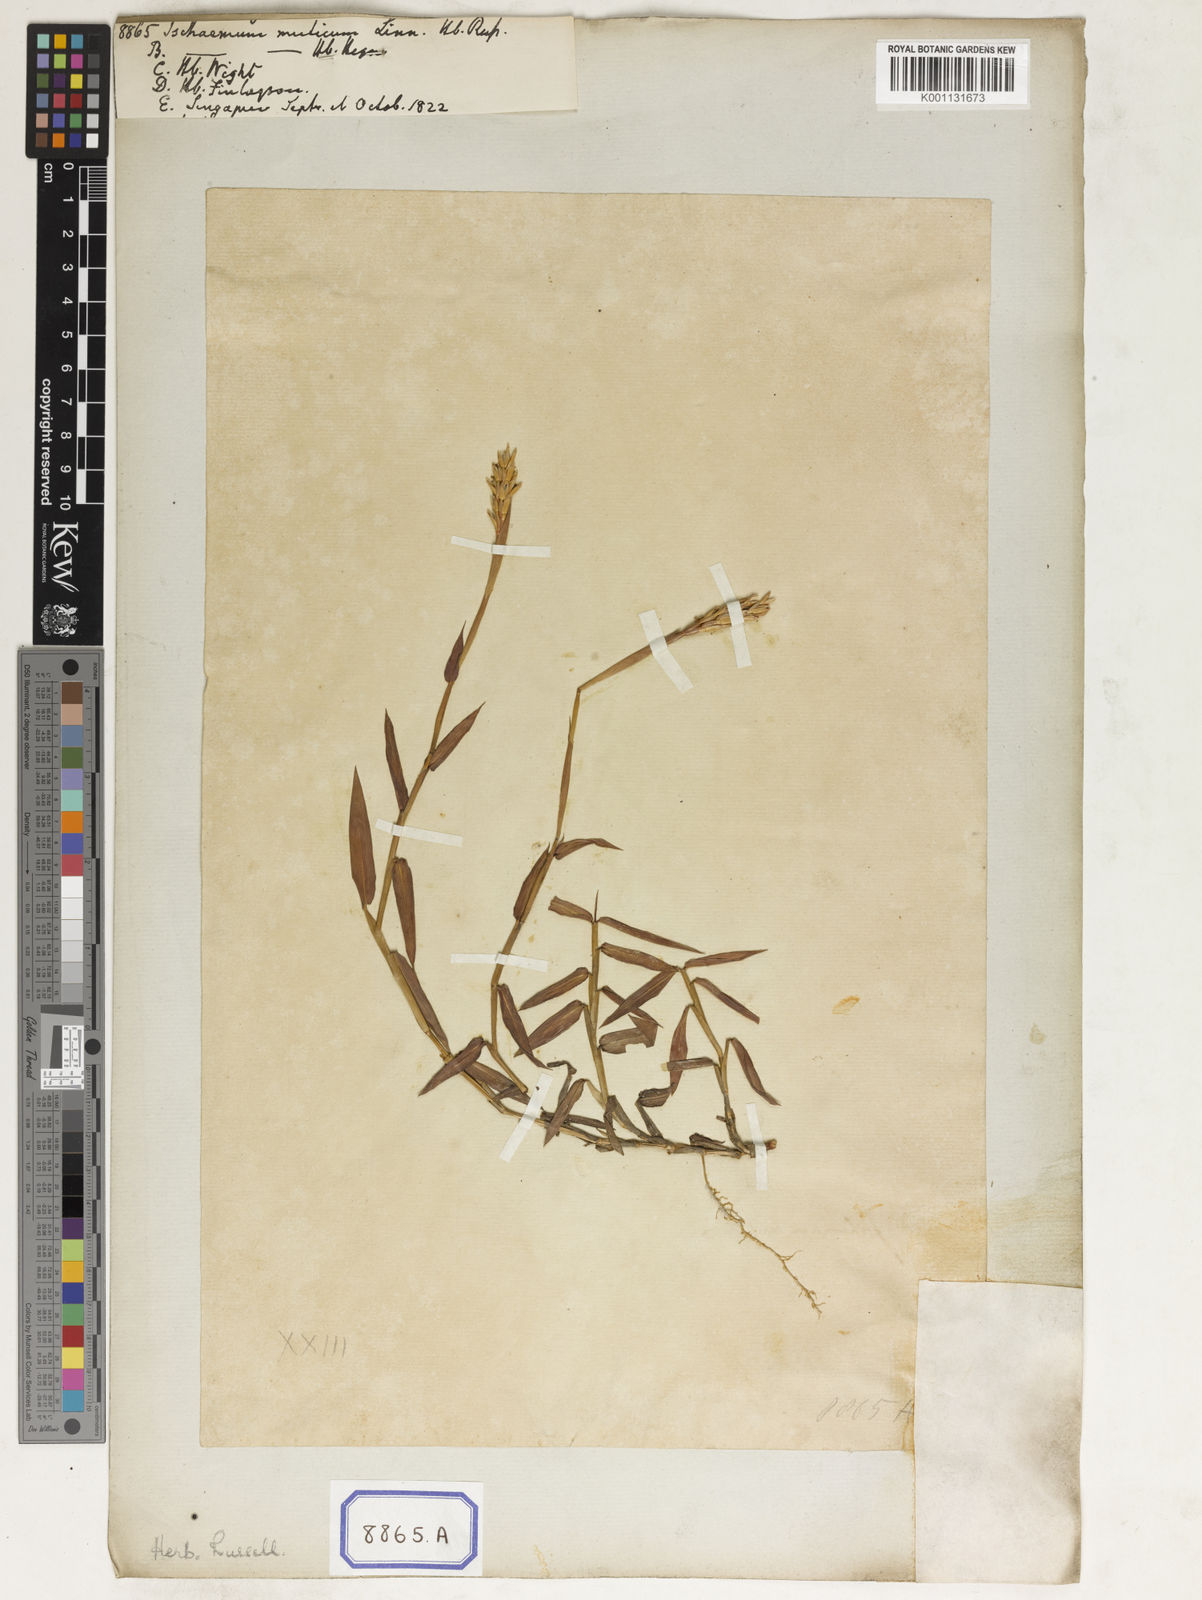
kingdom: Plantae
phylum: Tracheophyta
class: Liliopsida
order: Poales
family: Poaceae
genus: Ischaemum
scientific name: Ischaemum muticum
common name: Drought grass
